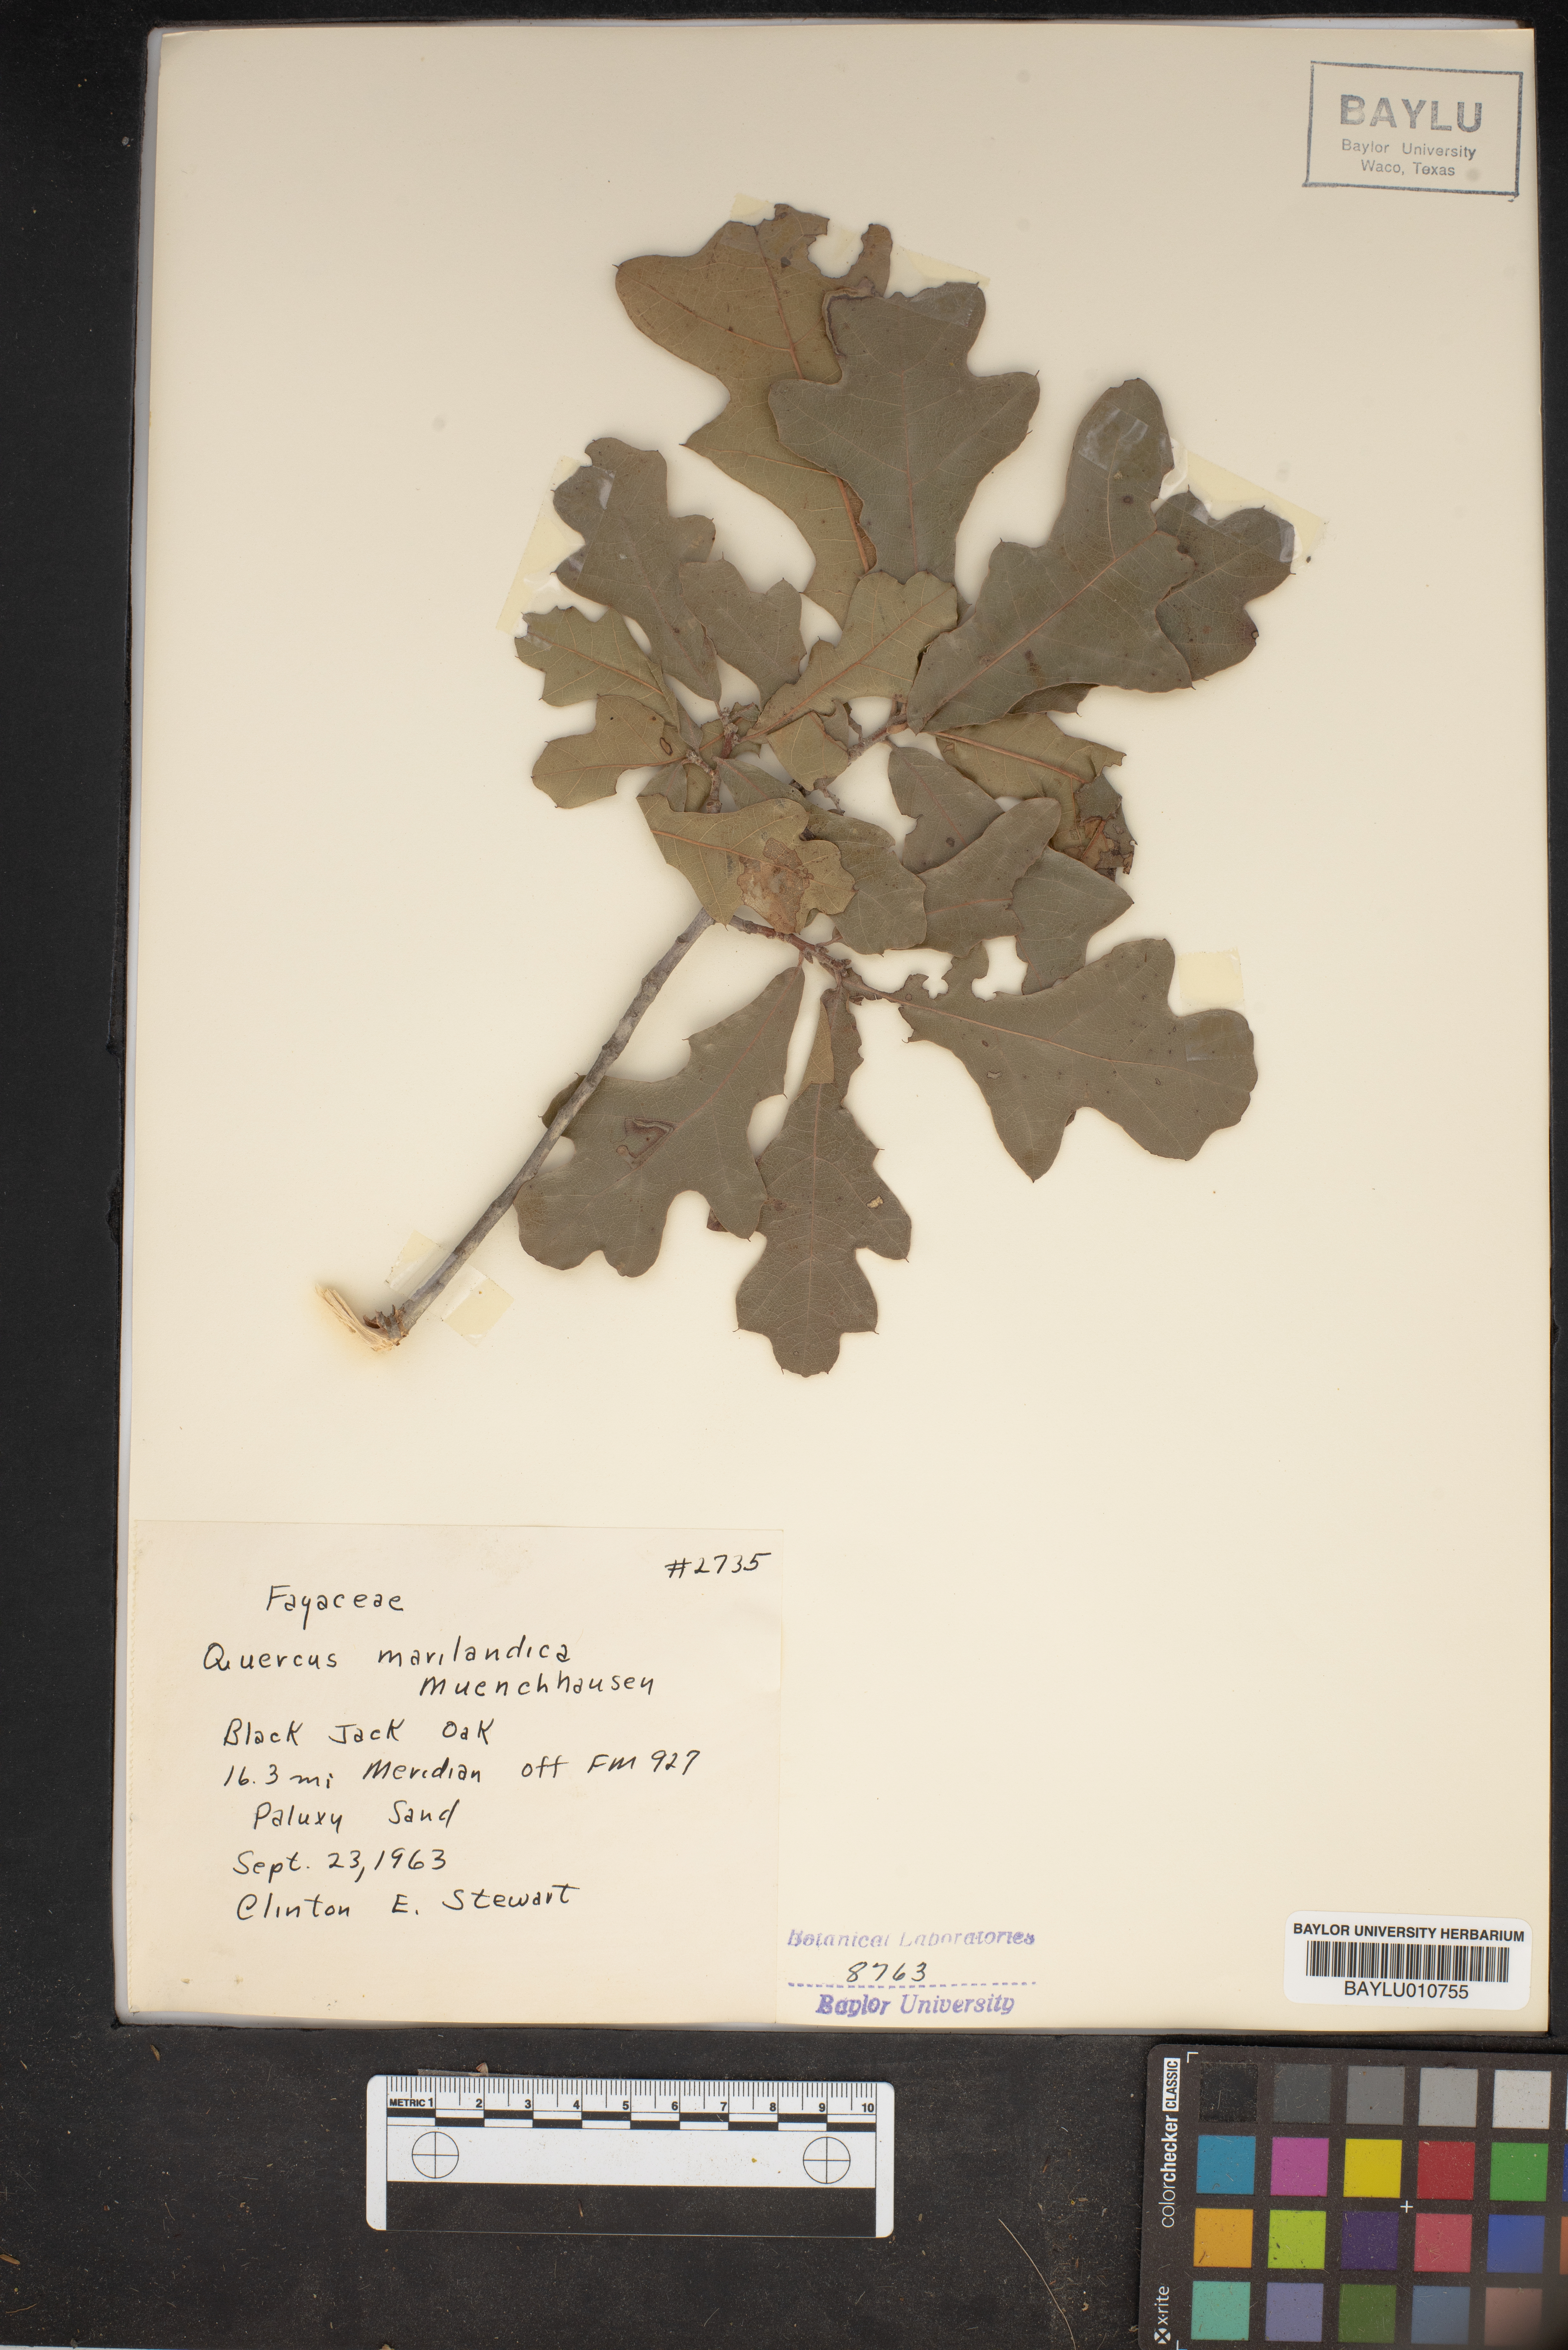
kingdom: Plantae
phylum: Tracheophyta
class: Magnoliopsida
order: Fagales
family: Fagaceae
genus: Quercus
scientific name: Quercus marilandica
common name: Blackjack oak
